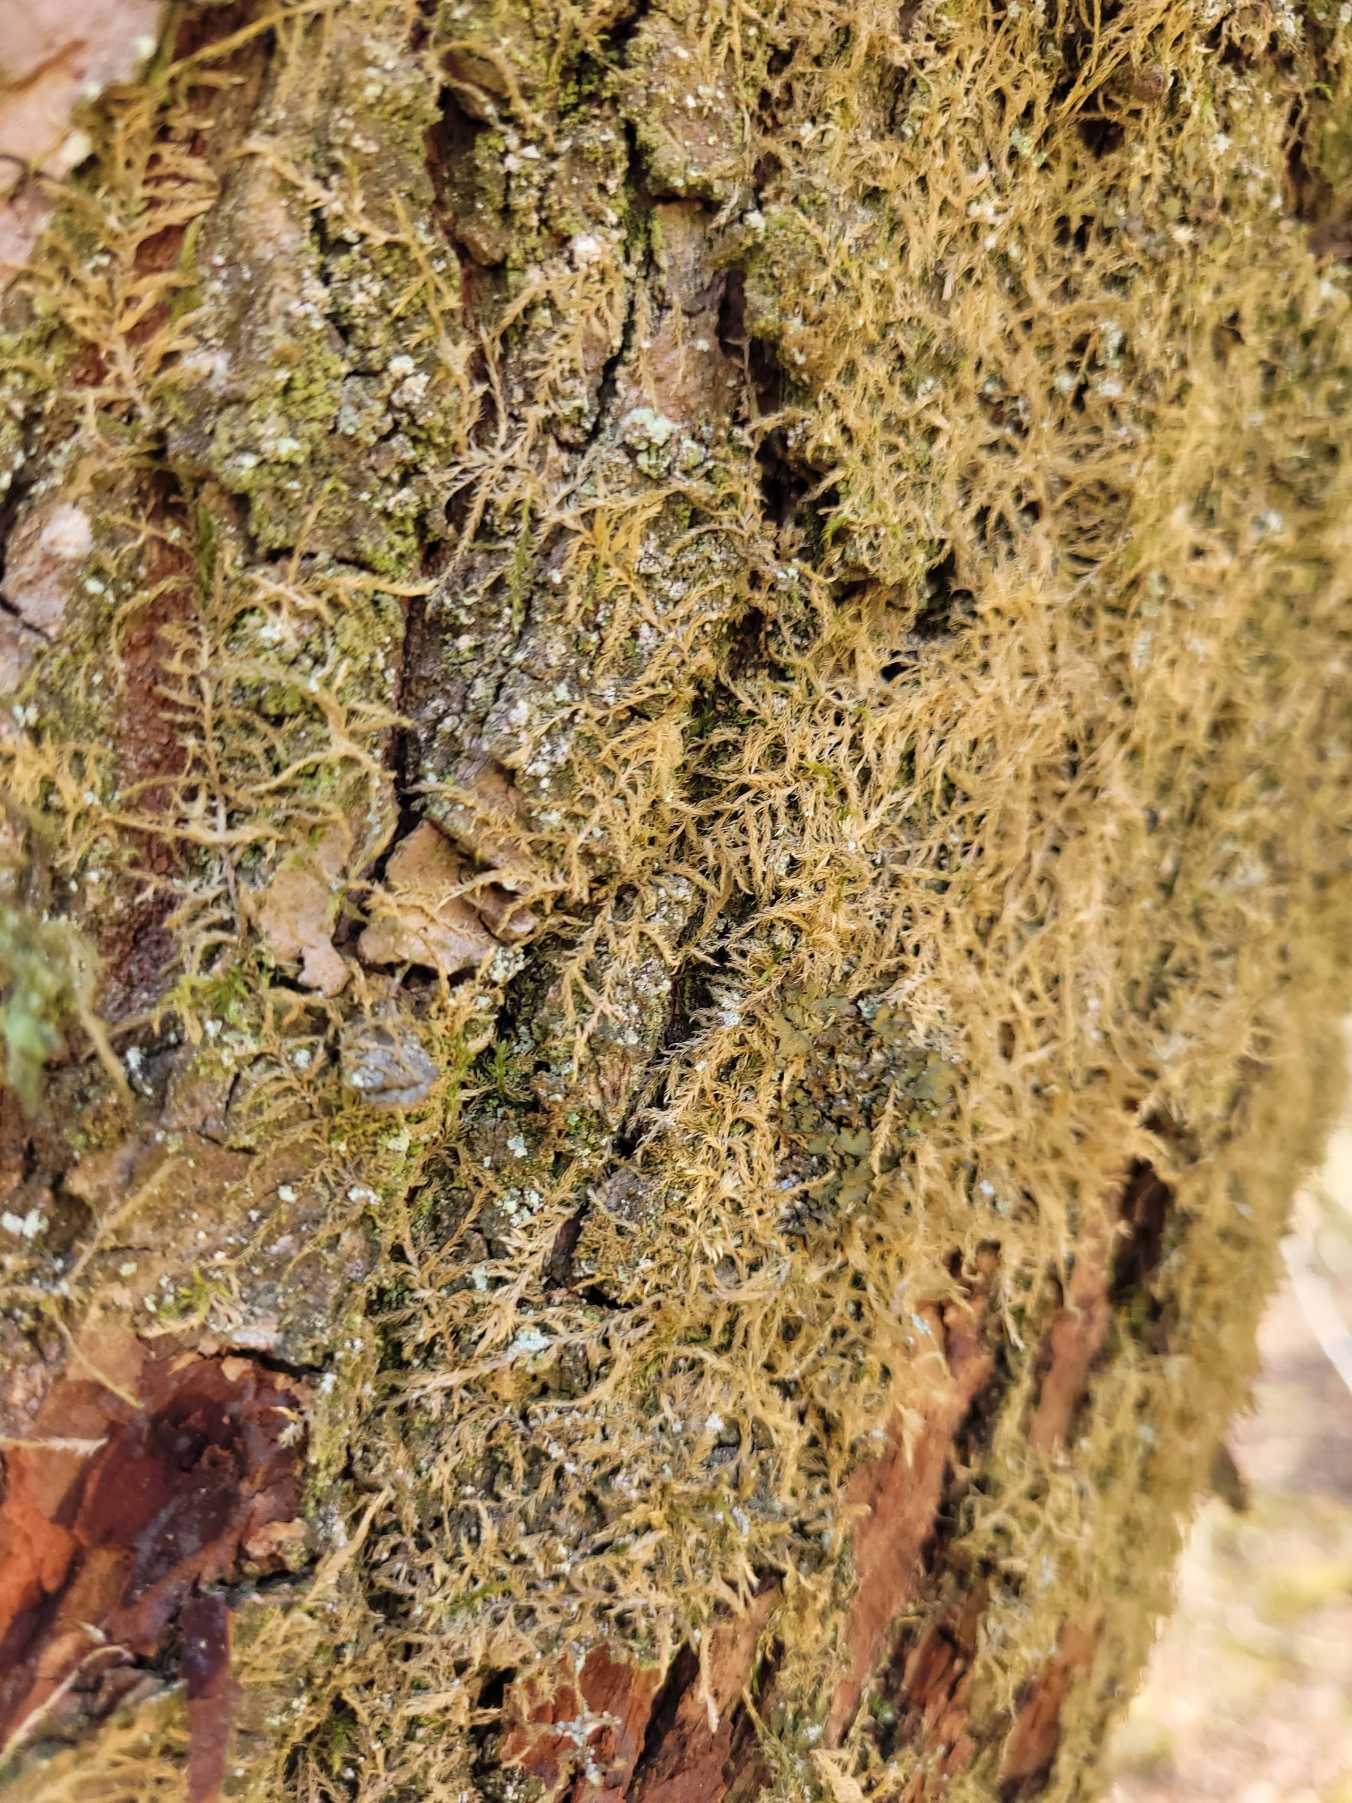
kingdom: Plantae
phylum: Bryophyta
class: Bryopsida
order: Hypnales
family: Hypnaceae
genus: Hypnum
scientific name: Hypnum
